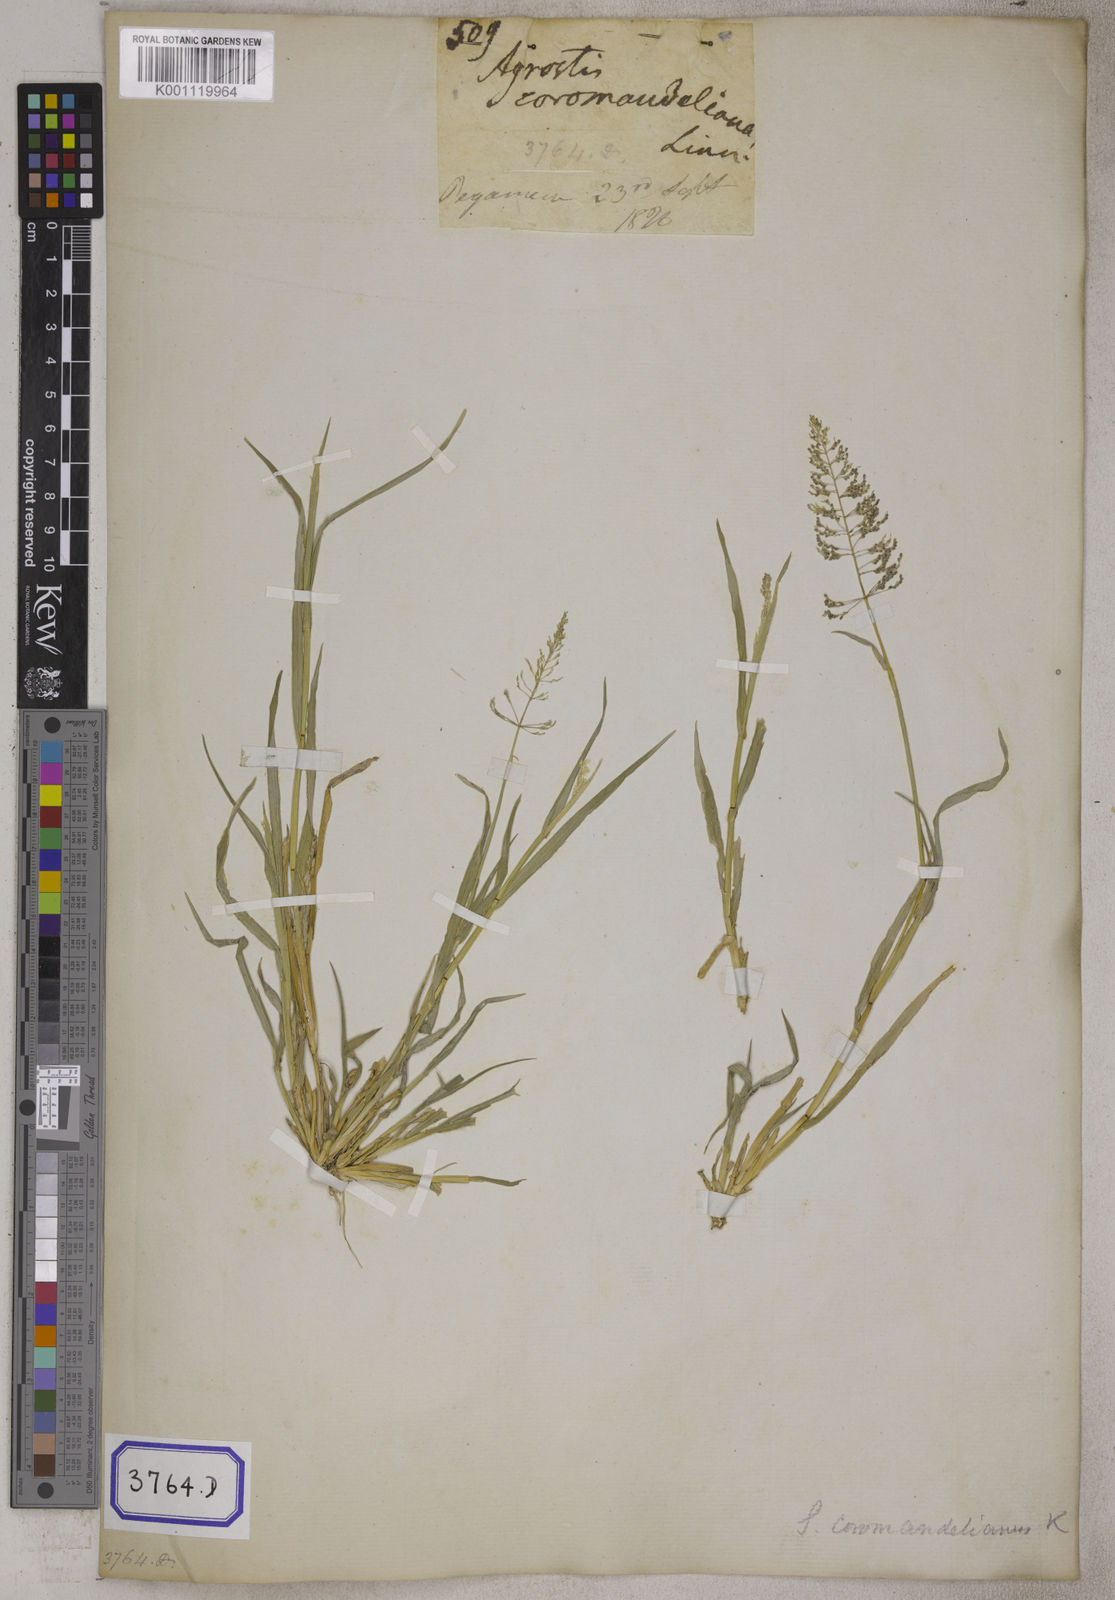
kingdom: Plantae
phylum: Tracheophyta
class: Liliopsida
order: Poales
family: Poaceae
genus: Sporobolus
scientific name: Sporobolus coromandelianus
